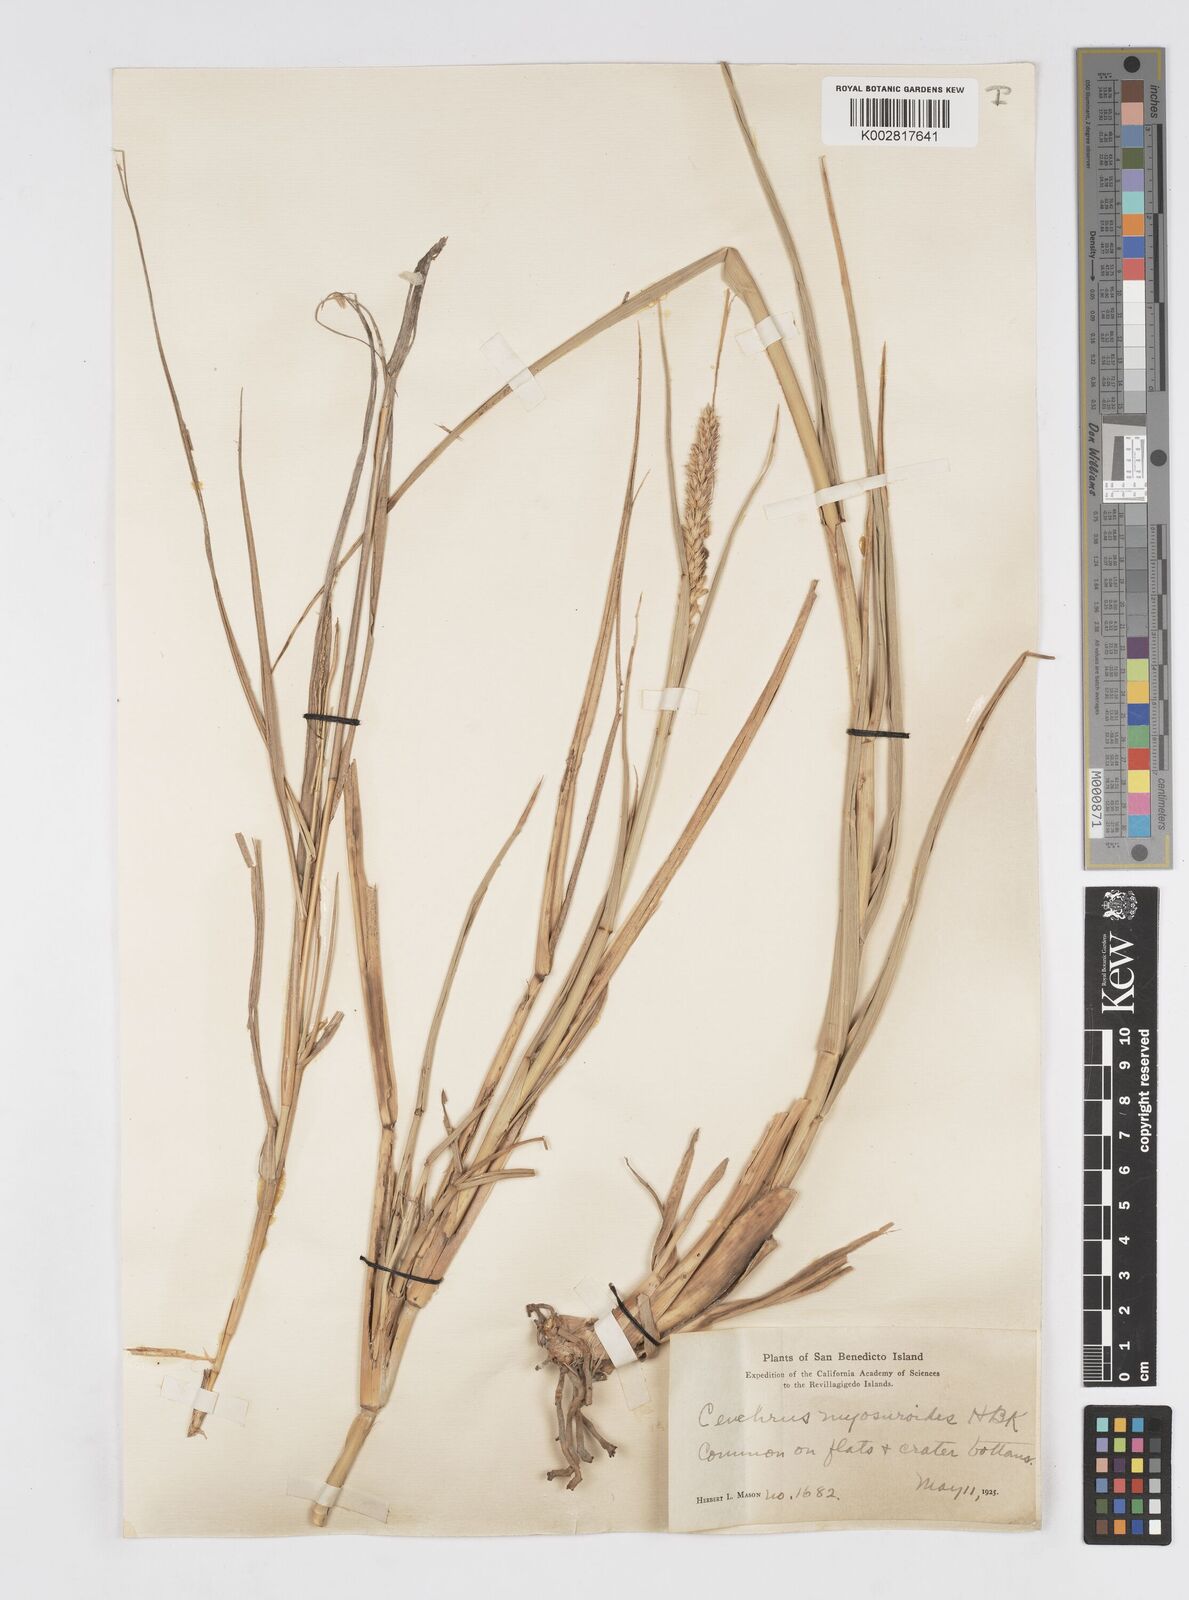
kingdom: Plantae
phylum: Tracheophyta
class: Liliopsida
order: Poales
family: Poaceae
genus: Cenchrus
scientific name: Cenchrus myosuroides
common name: Big sandbur
